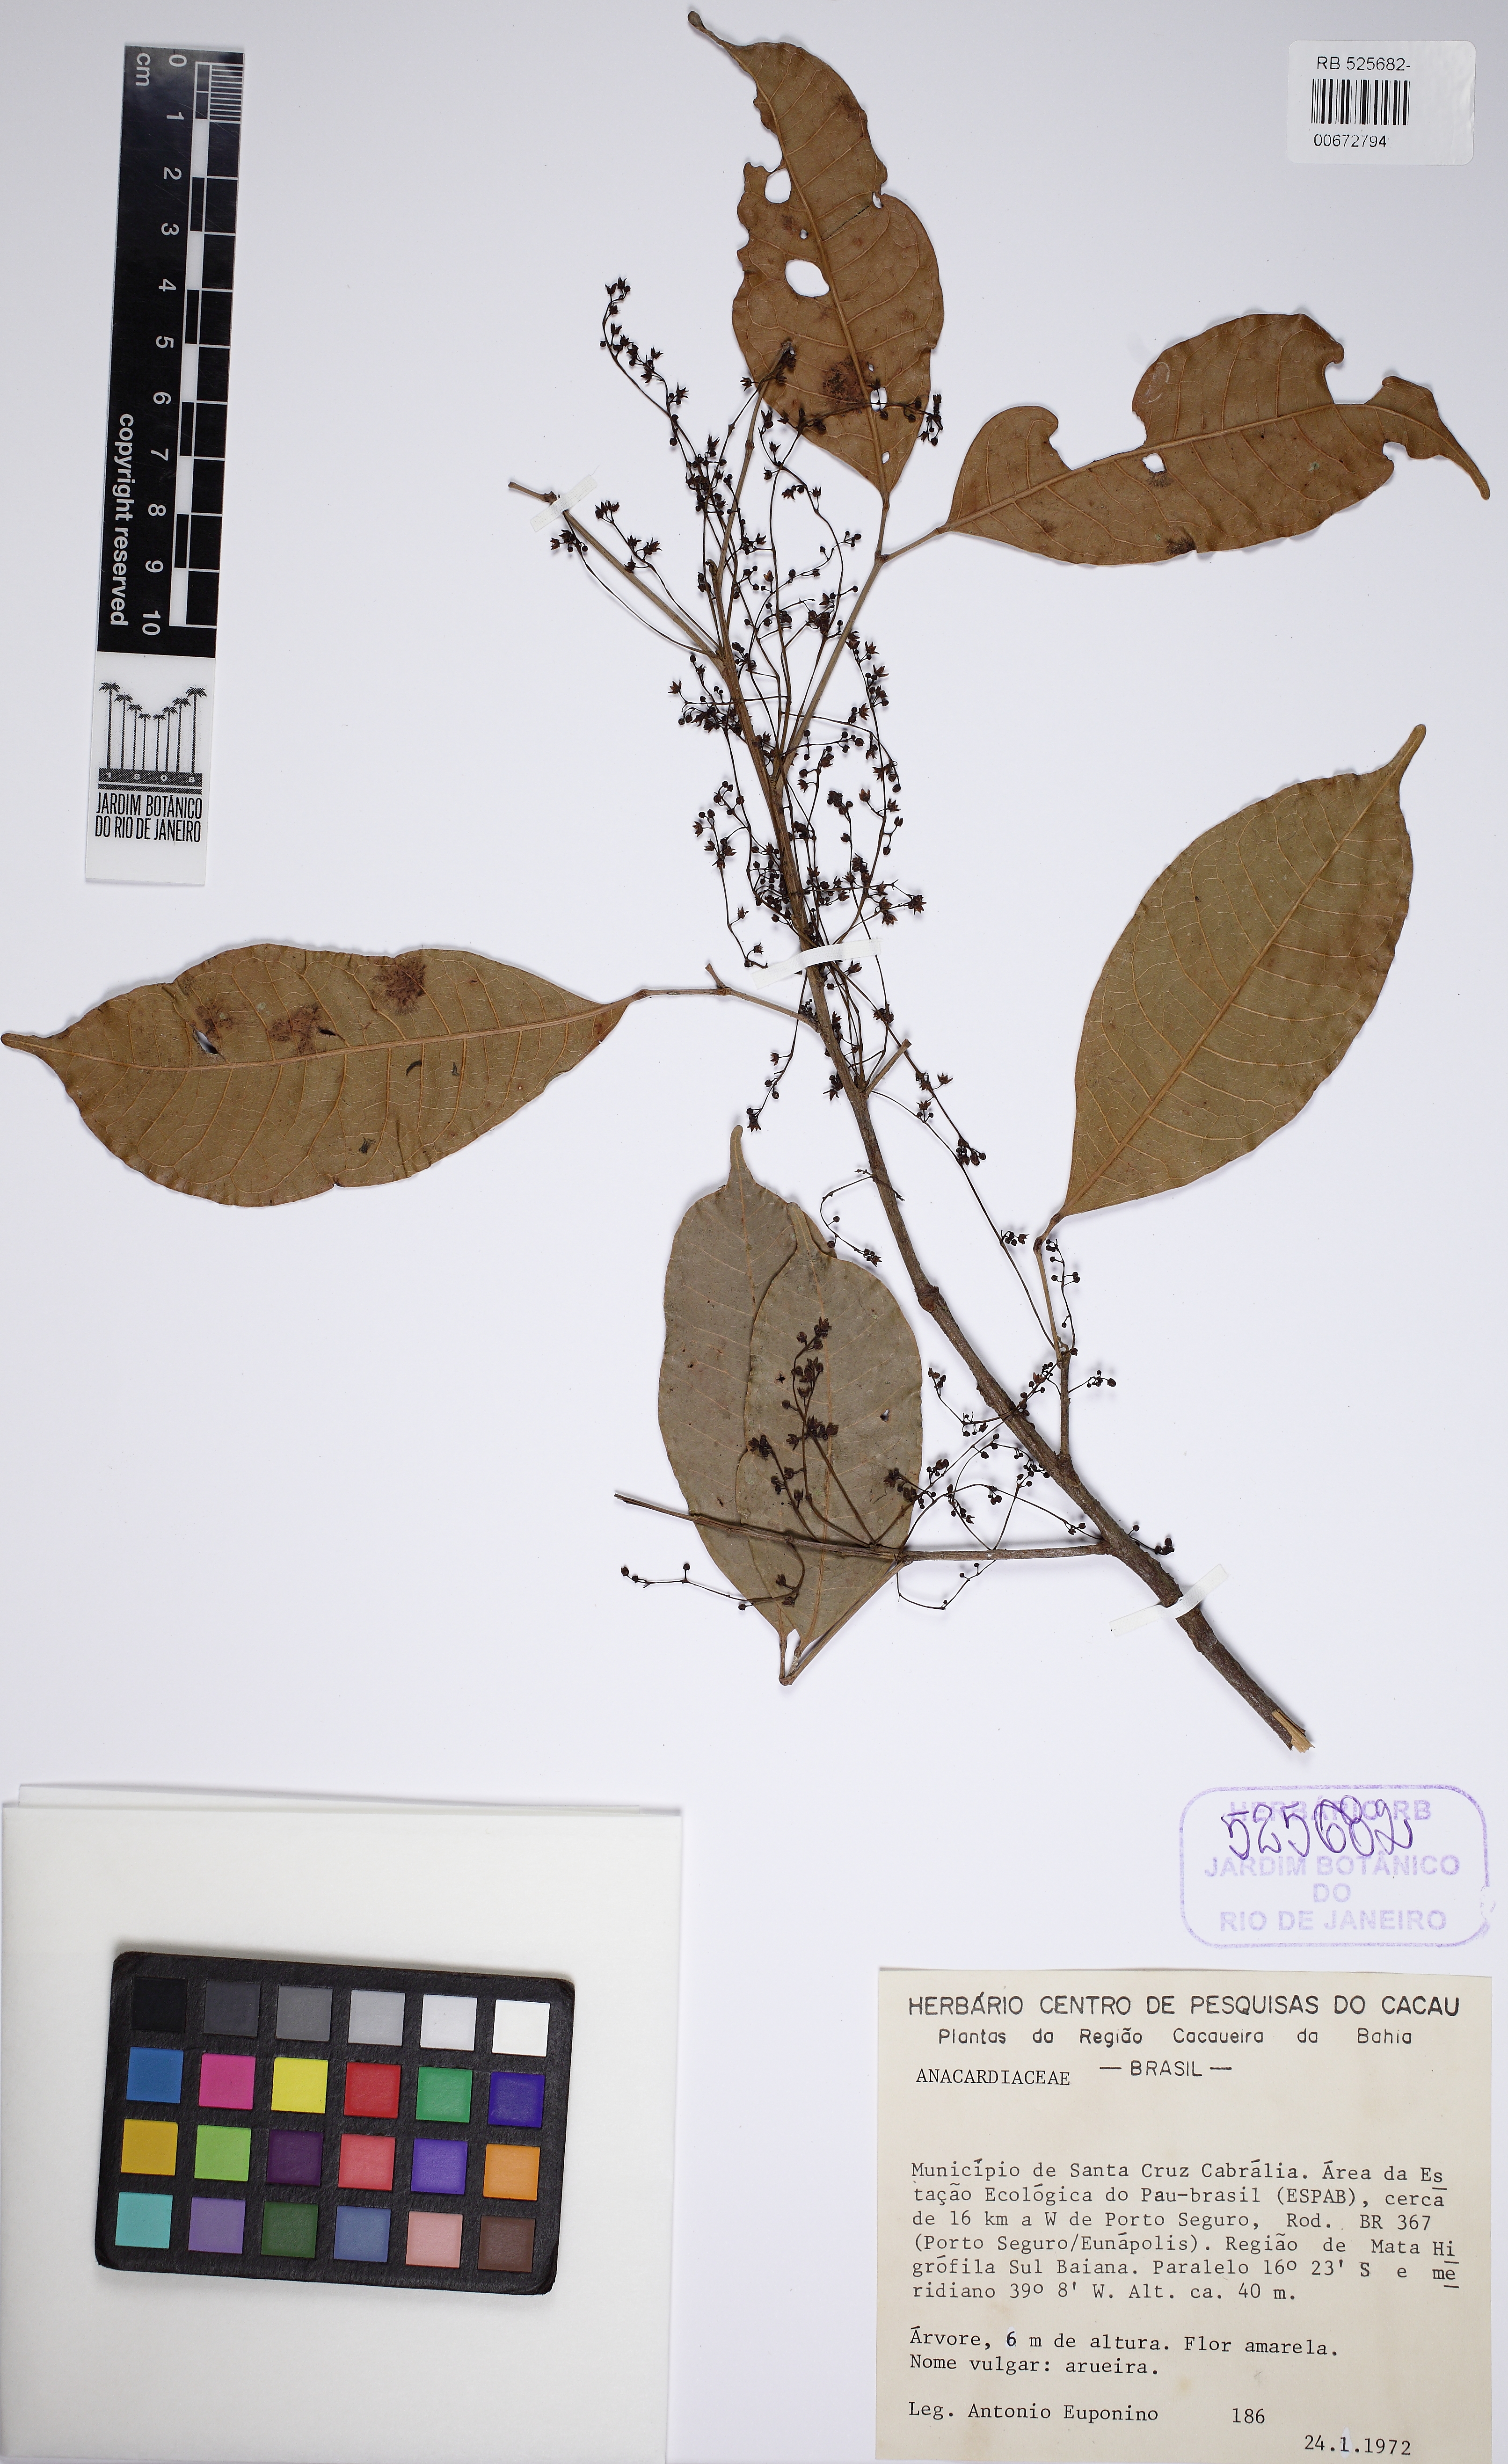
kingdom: Plantae
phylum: Tracheophyta
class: Magnoliopsida
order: Sapindales
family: Burseraceae
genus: Protium
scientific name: Protium aracouchini
